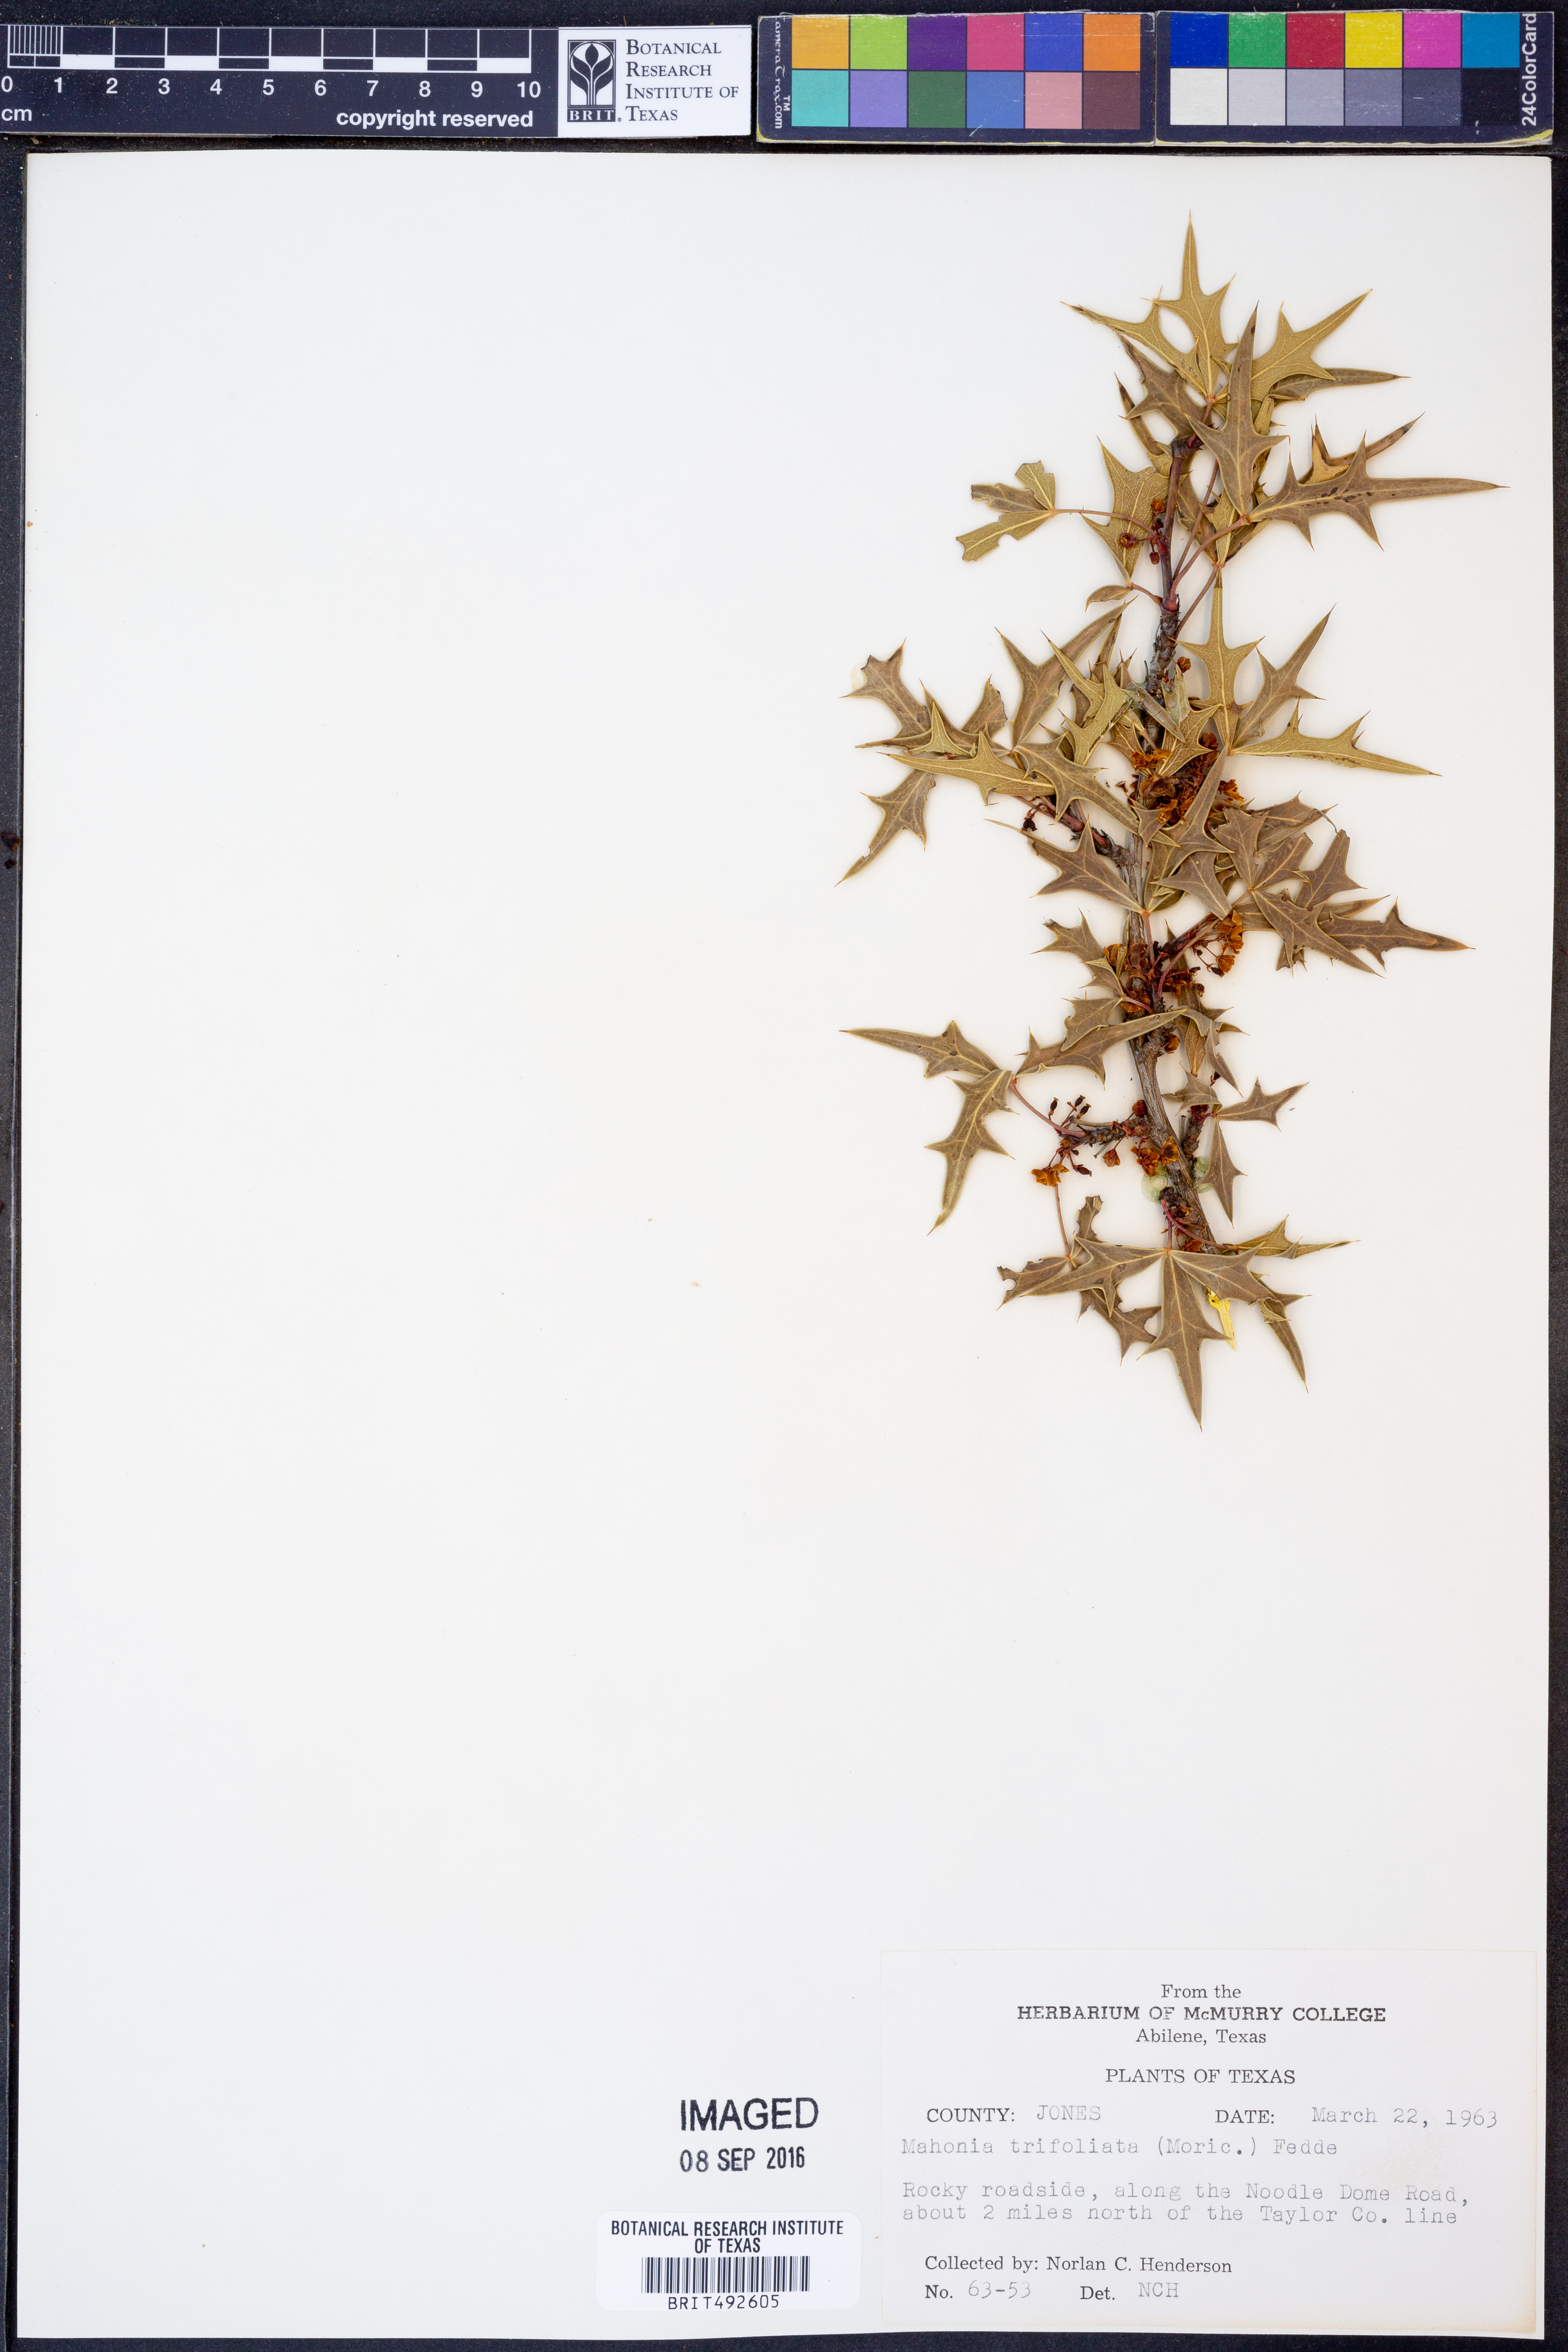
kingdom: Plantae
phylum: Tracheophyta
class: Magnoliopsida
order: Ranunculales
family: Berberidaceae
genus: Mahonia
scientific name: Mahonia trifolia
